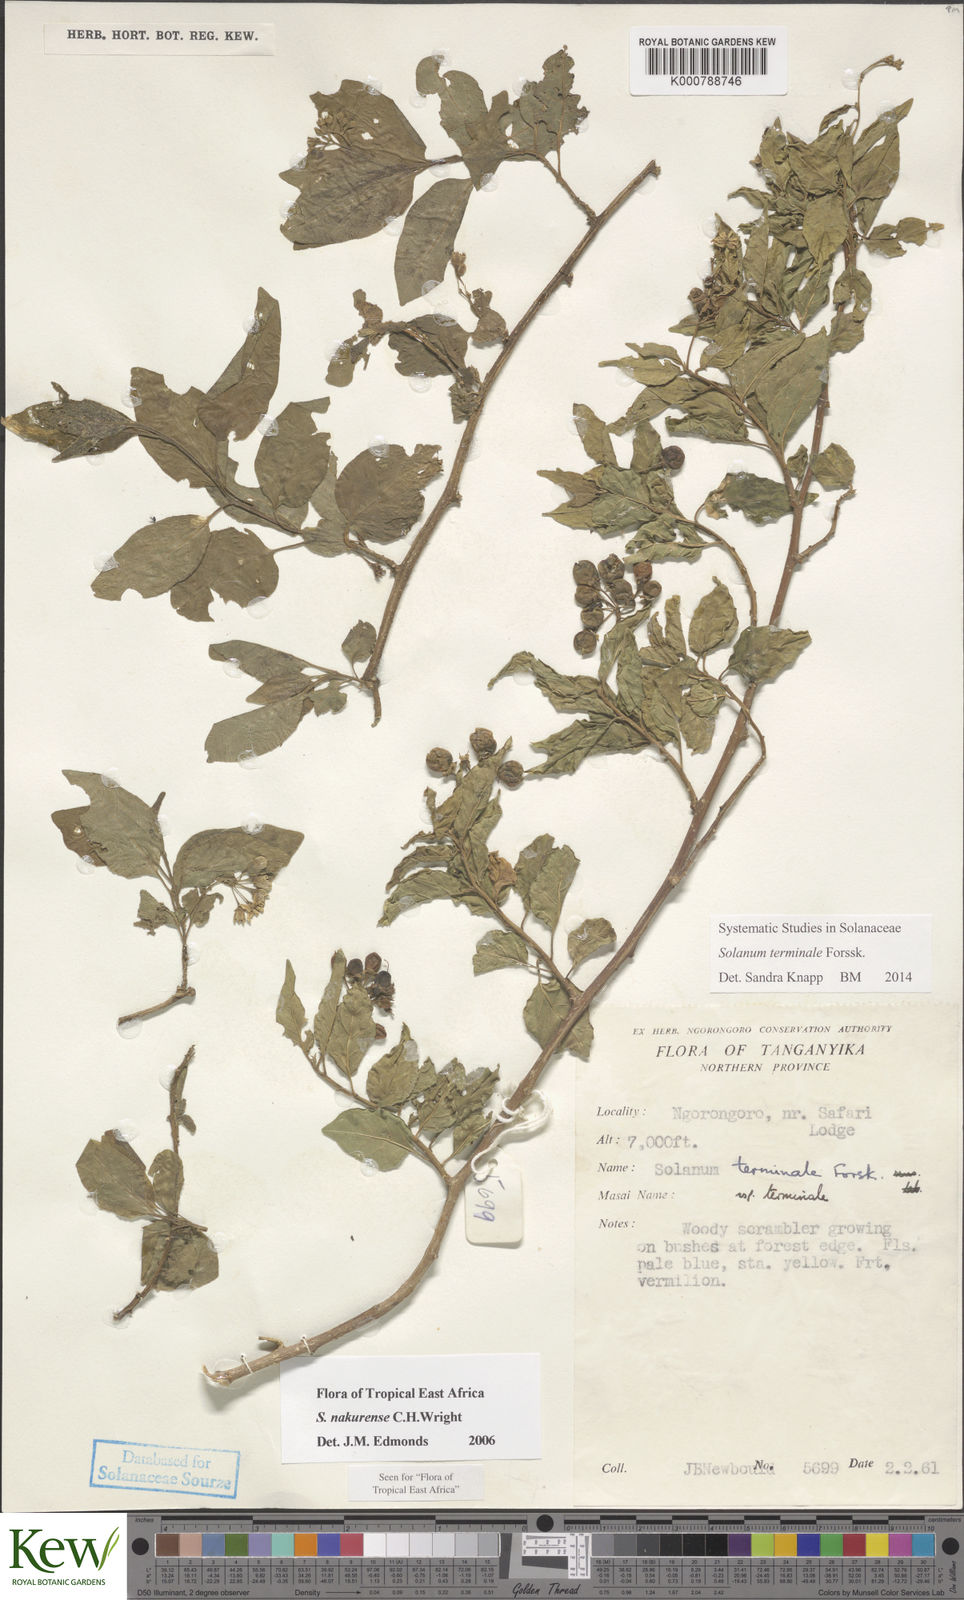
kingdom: Plantae
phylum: Tracheophyta
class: Magnoliopsida
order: Solanales
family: Solanaceae
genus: Solanum
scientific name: Solanum terminale
